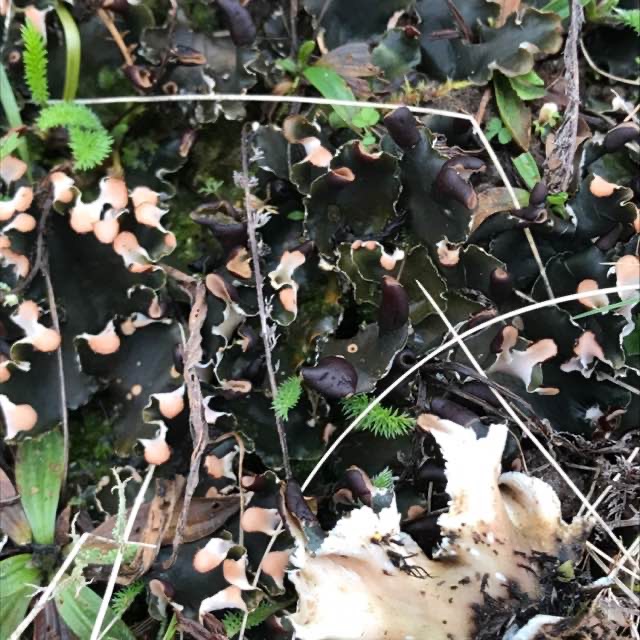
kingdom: Fungi
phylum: Ascomycota
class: Lecanoromycetes
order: Peltigerales
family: Peltigeraceae
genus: Peltigera
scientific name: Peltigera neckeri
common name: Glinsende skjoldlav
